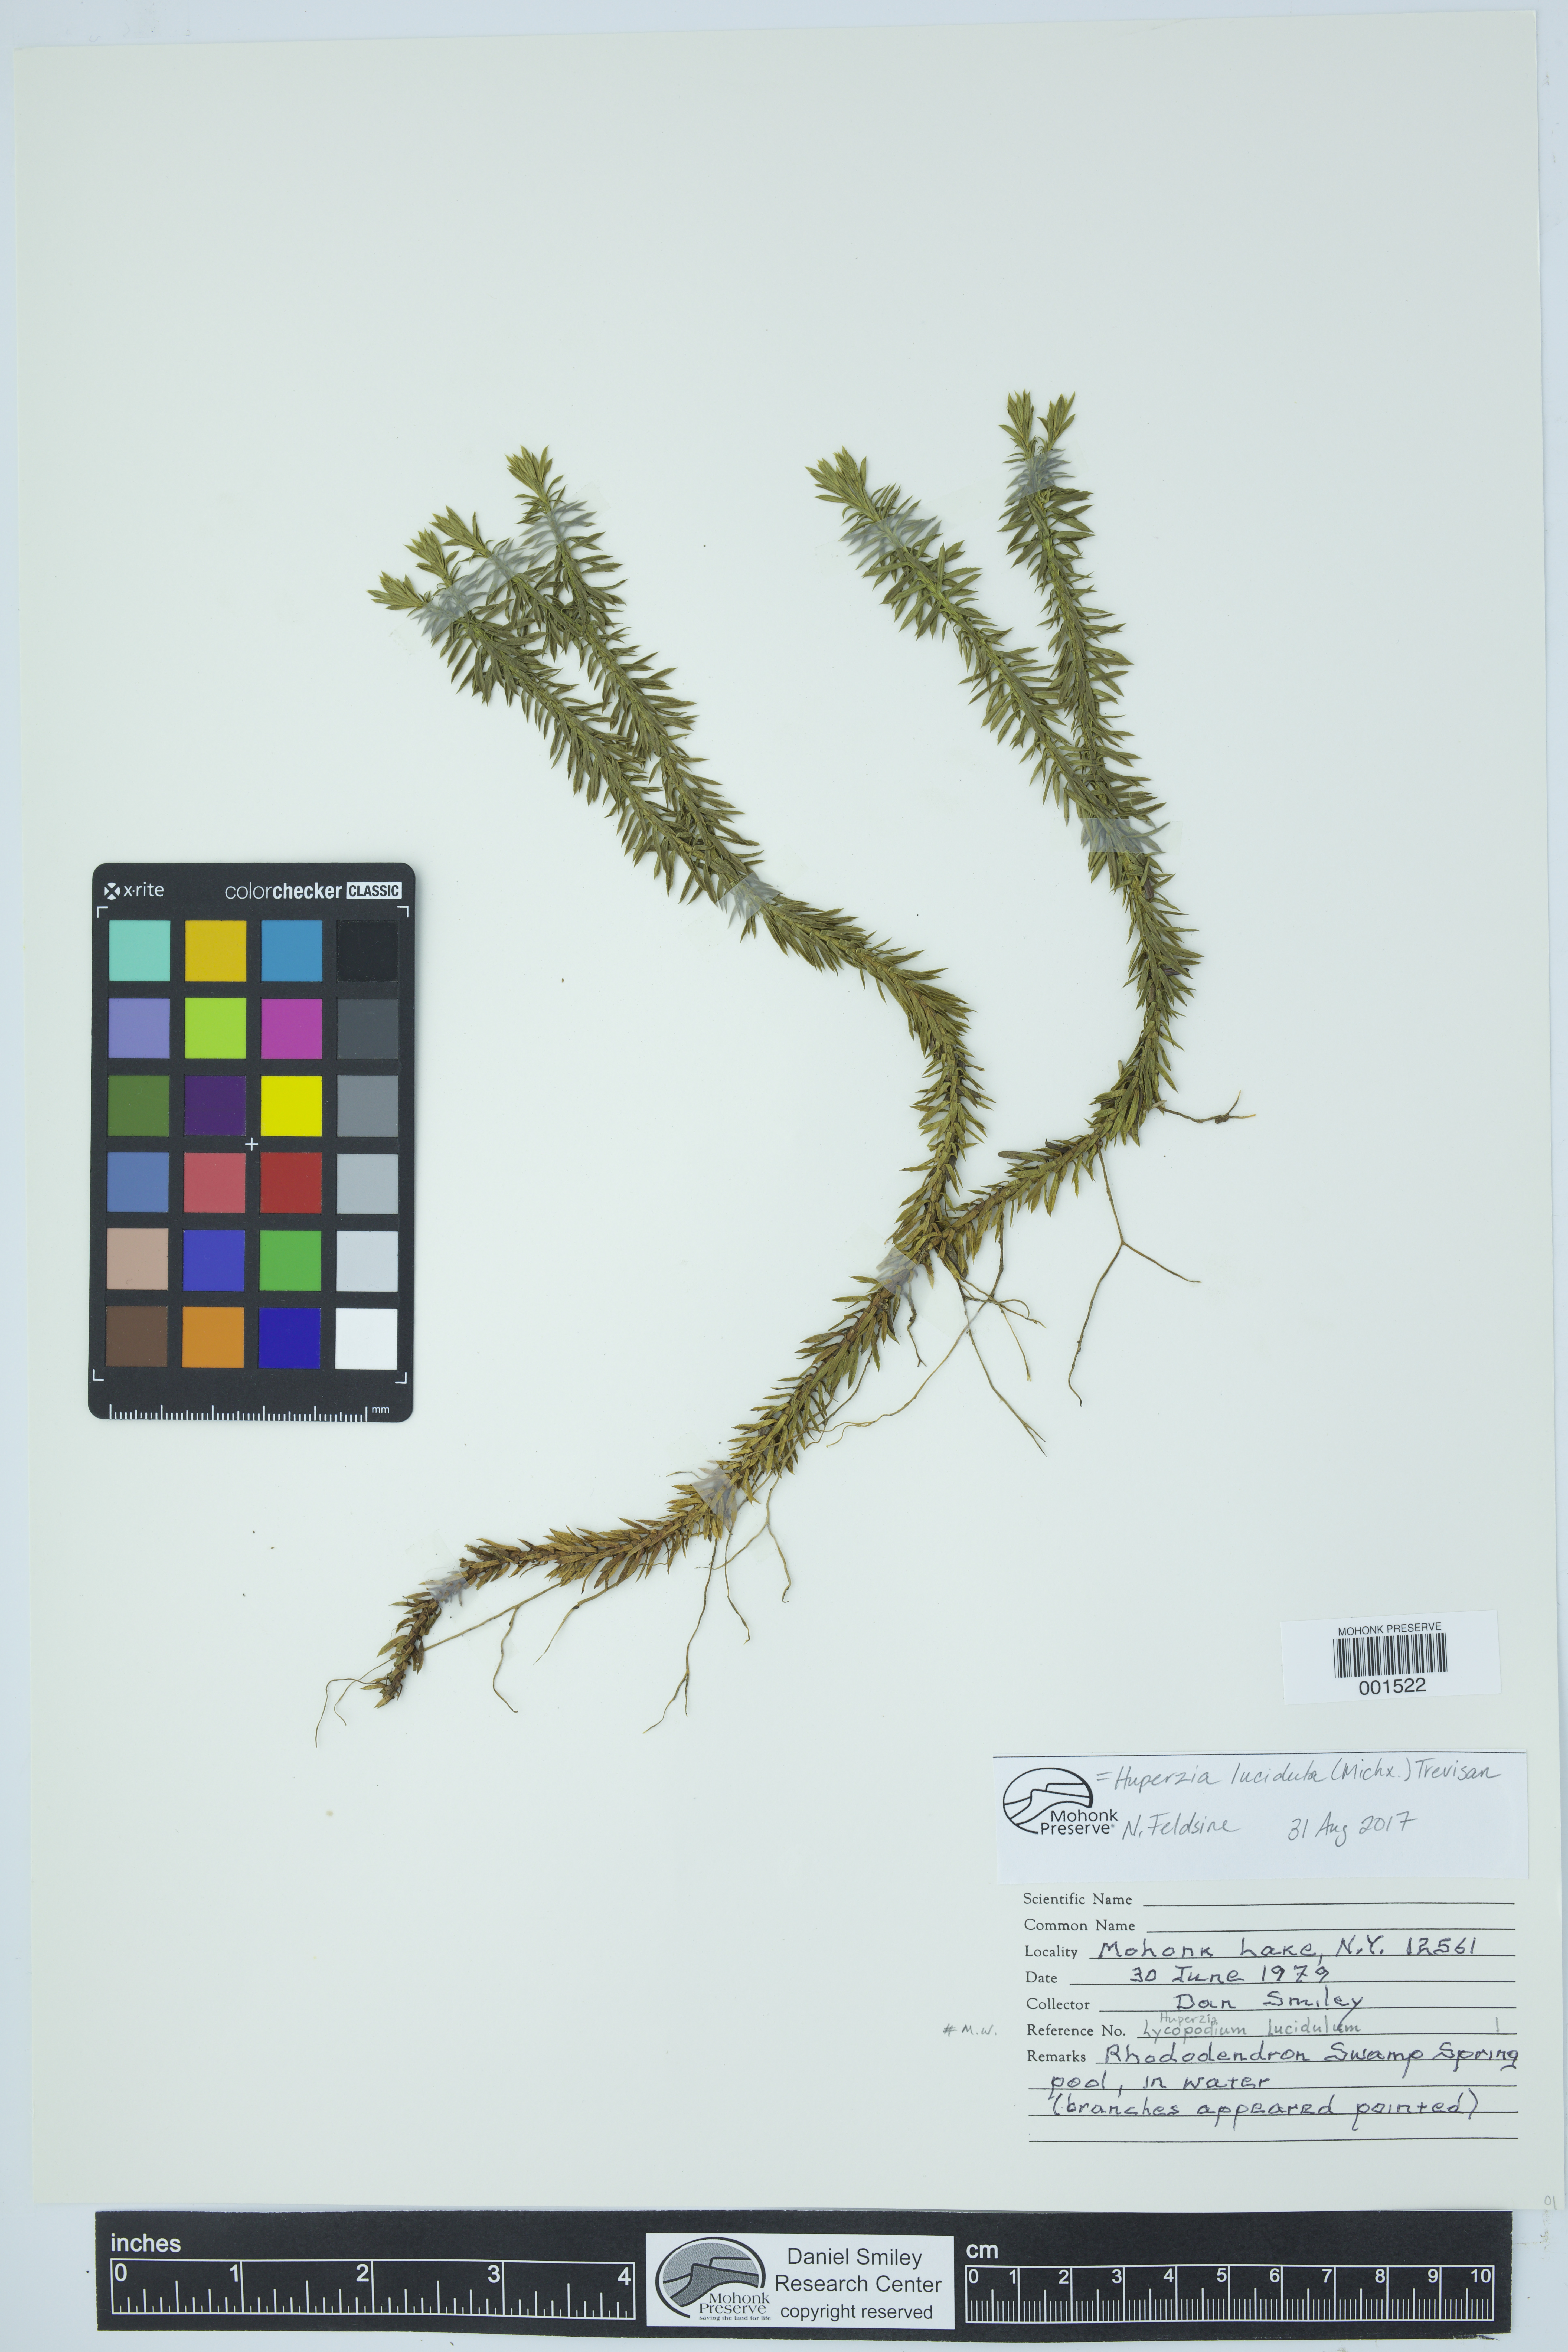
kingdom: Plantae
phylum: Tracheophyta
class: Lycopodiopsida
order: Lycopodiales
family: Lycopodiaceae
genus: Huperzia
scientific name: Huperzia lucidula
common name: Shining clubmoss
